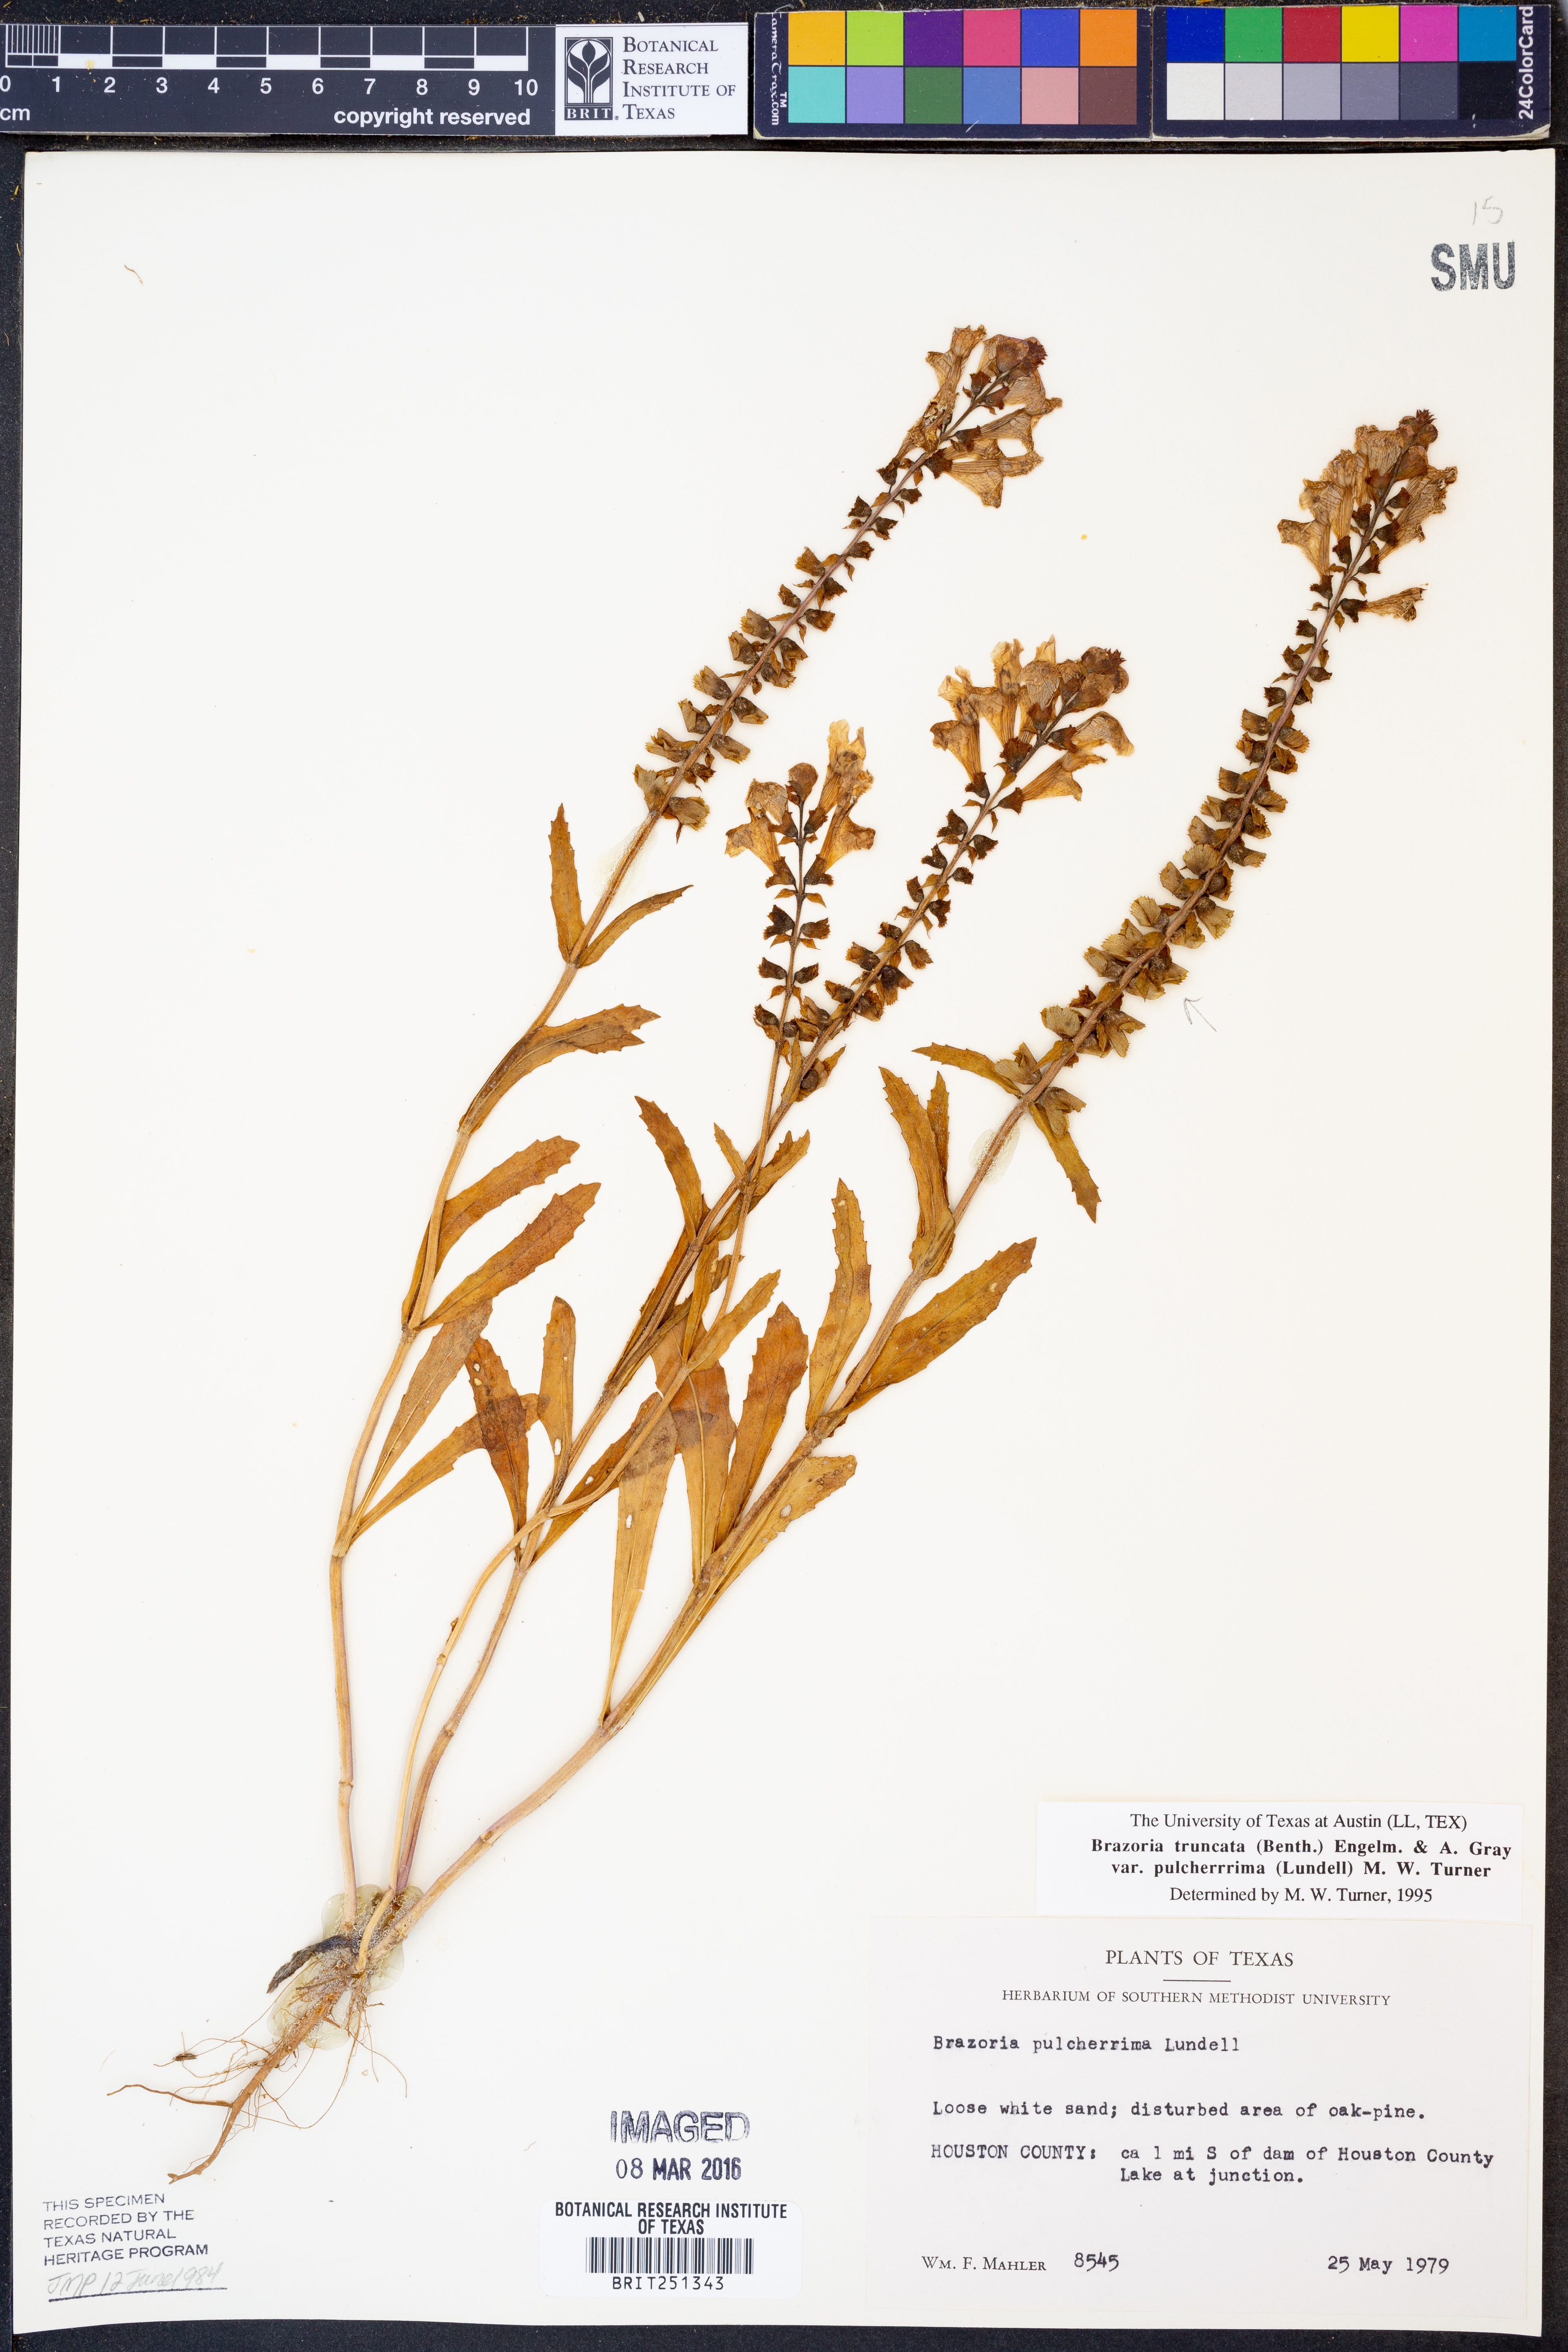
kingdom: Plantae
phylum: Tracheophyta
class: Magnoliopsida
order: Lamiales
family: Lamiaceae
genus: Brazoria
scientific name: Brazoria truncata
